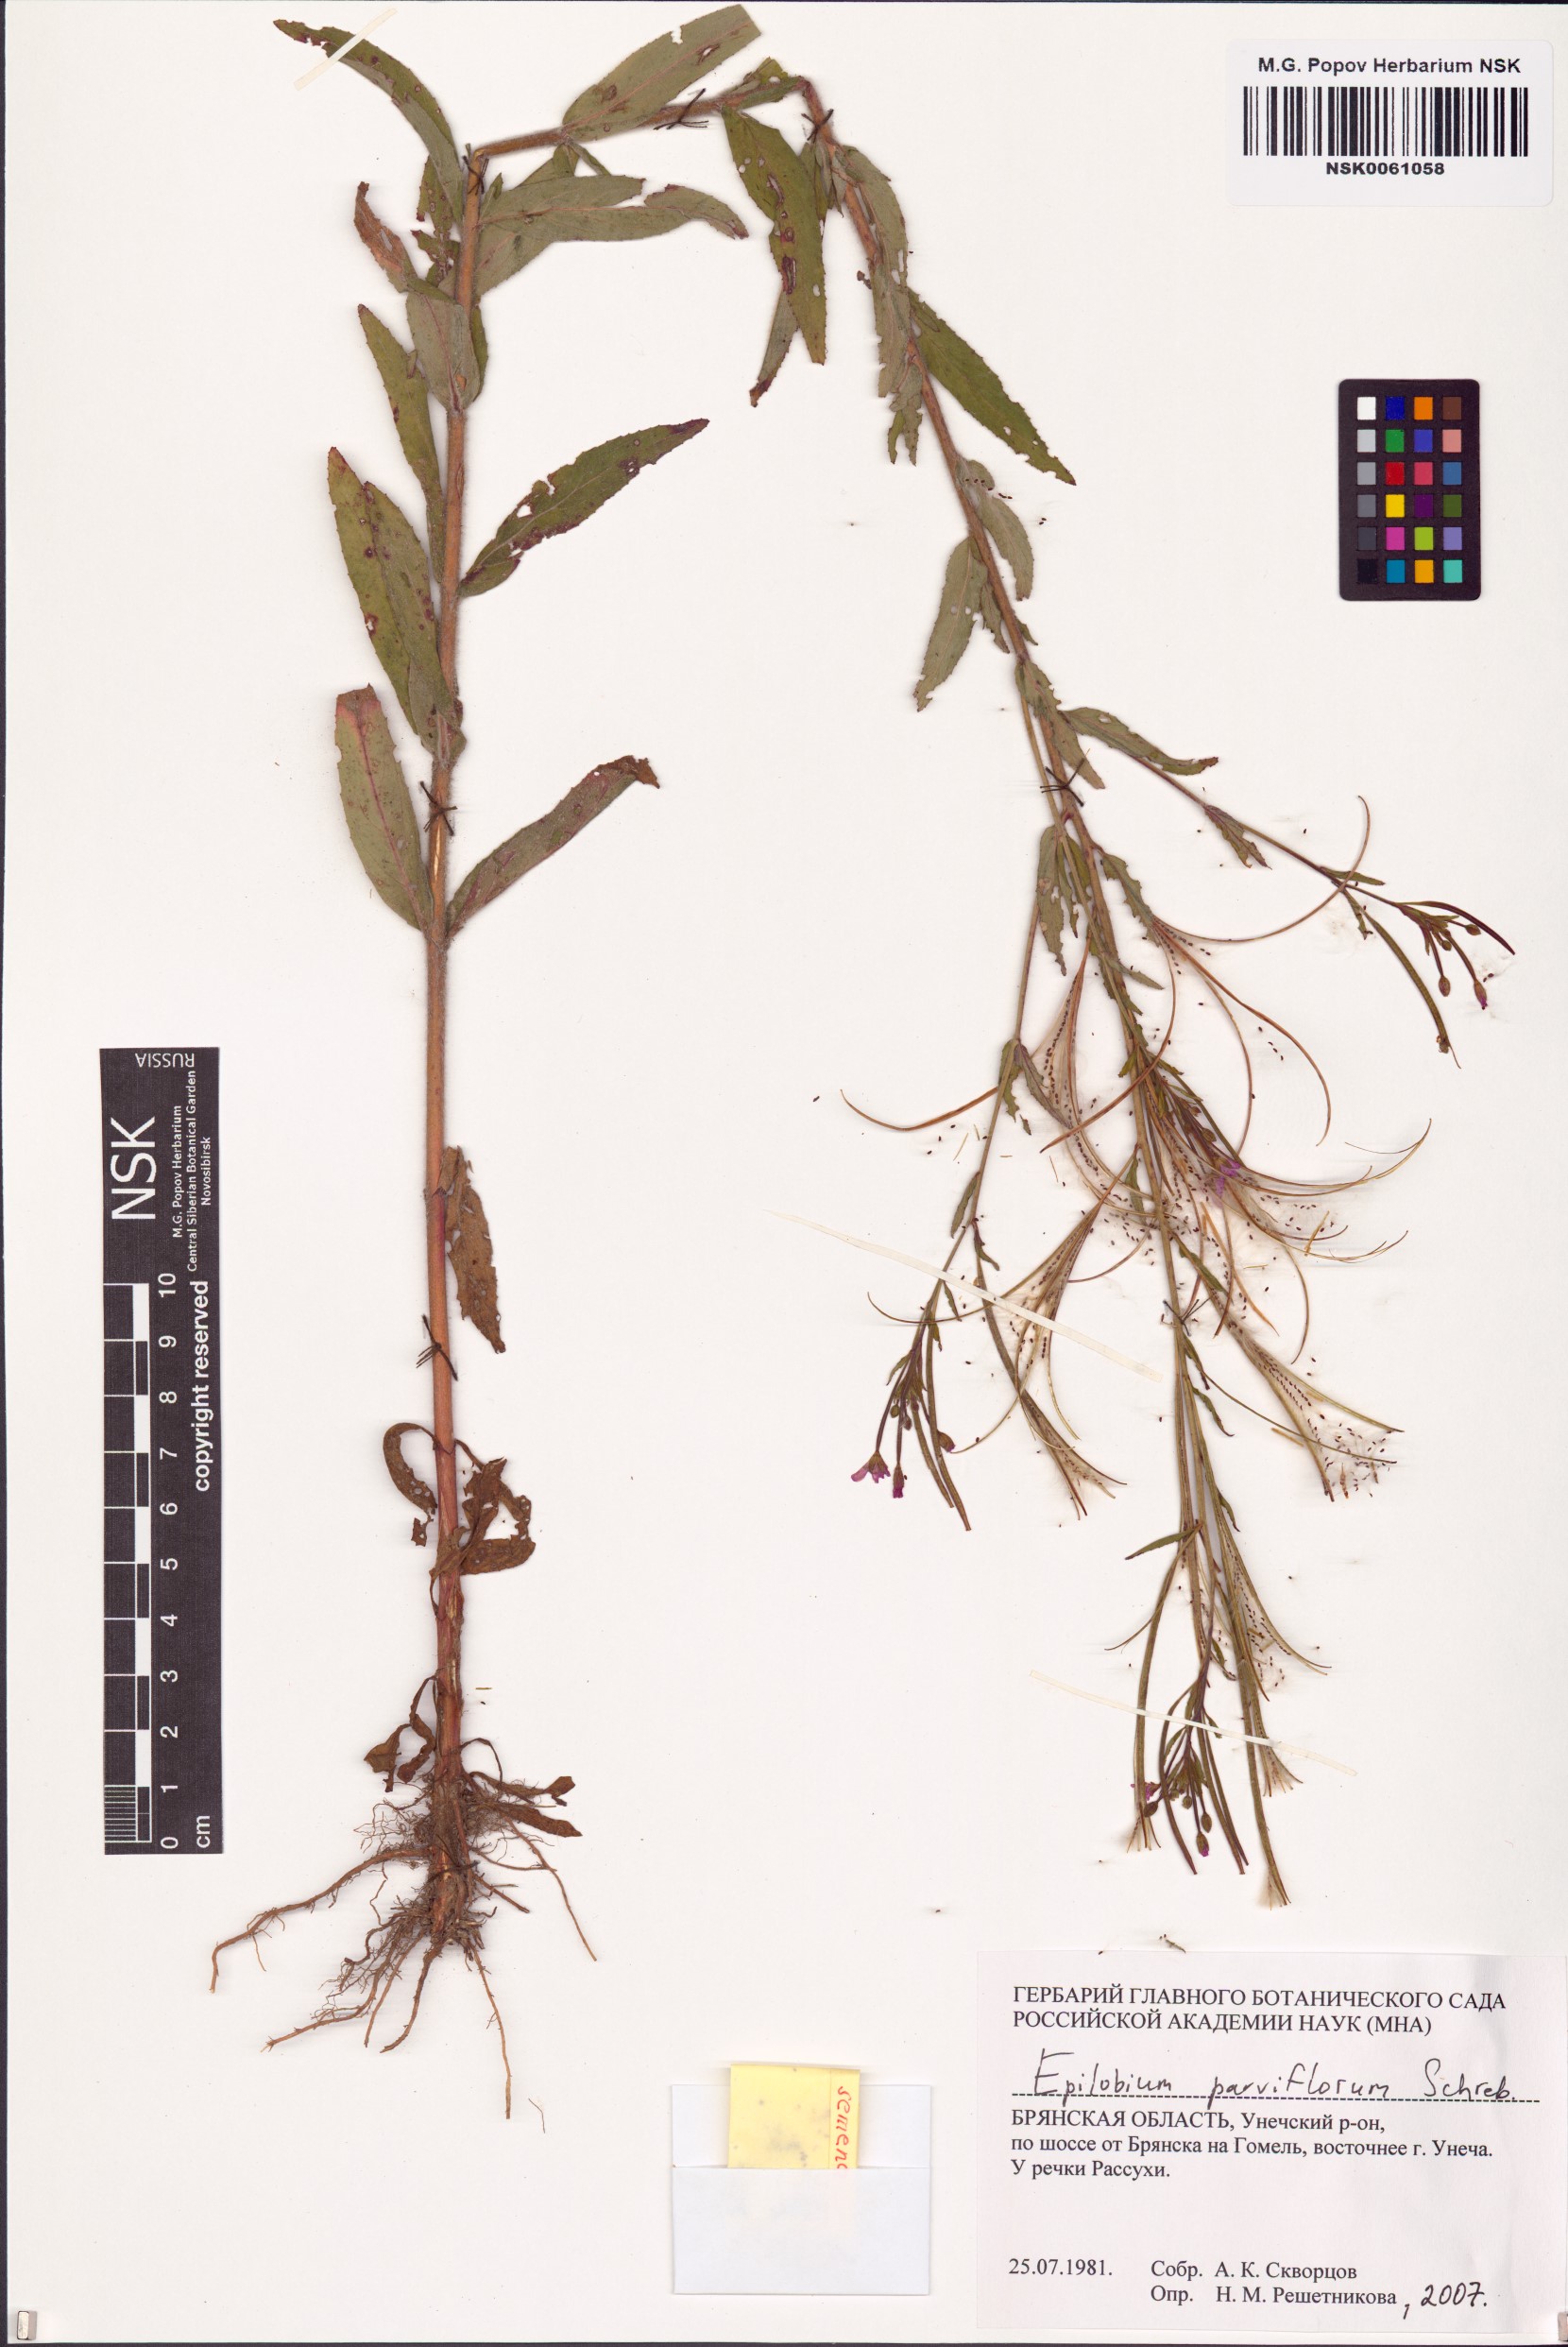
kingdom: Plantae
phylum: Tracheophyta
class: Magnoliopsida
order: Myrtales
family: Onagraceae
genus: Epilobium
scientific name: Epilobium parviflorum
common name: Hoary willowherb
